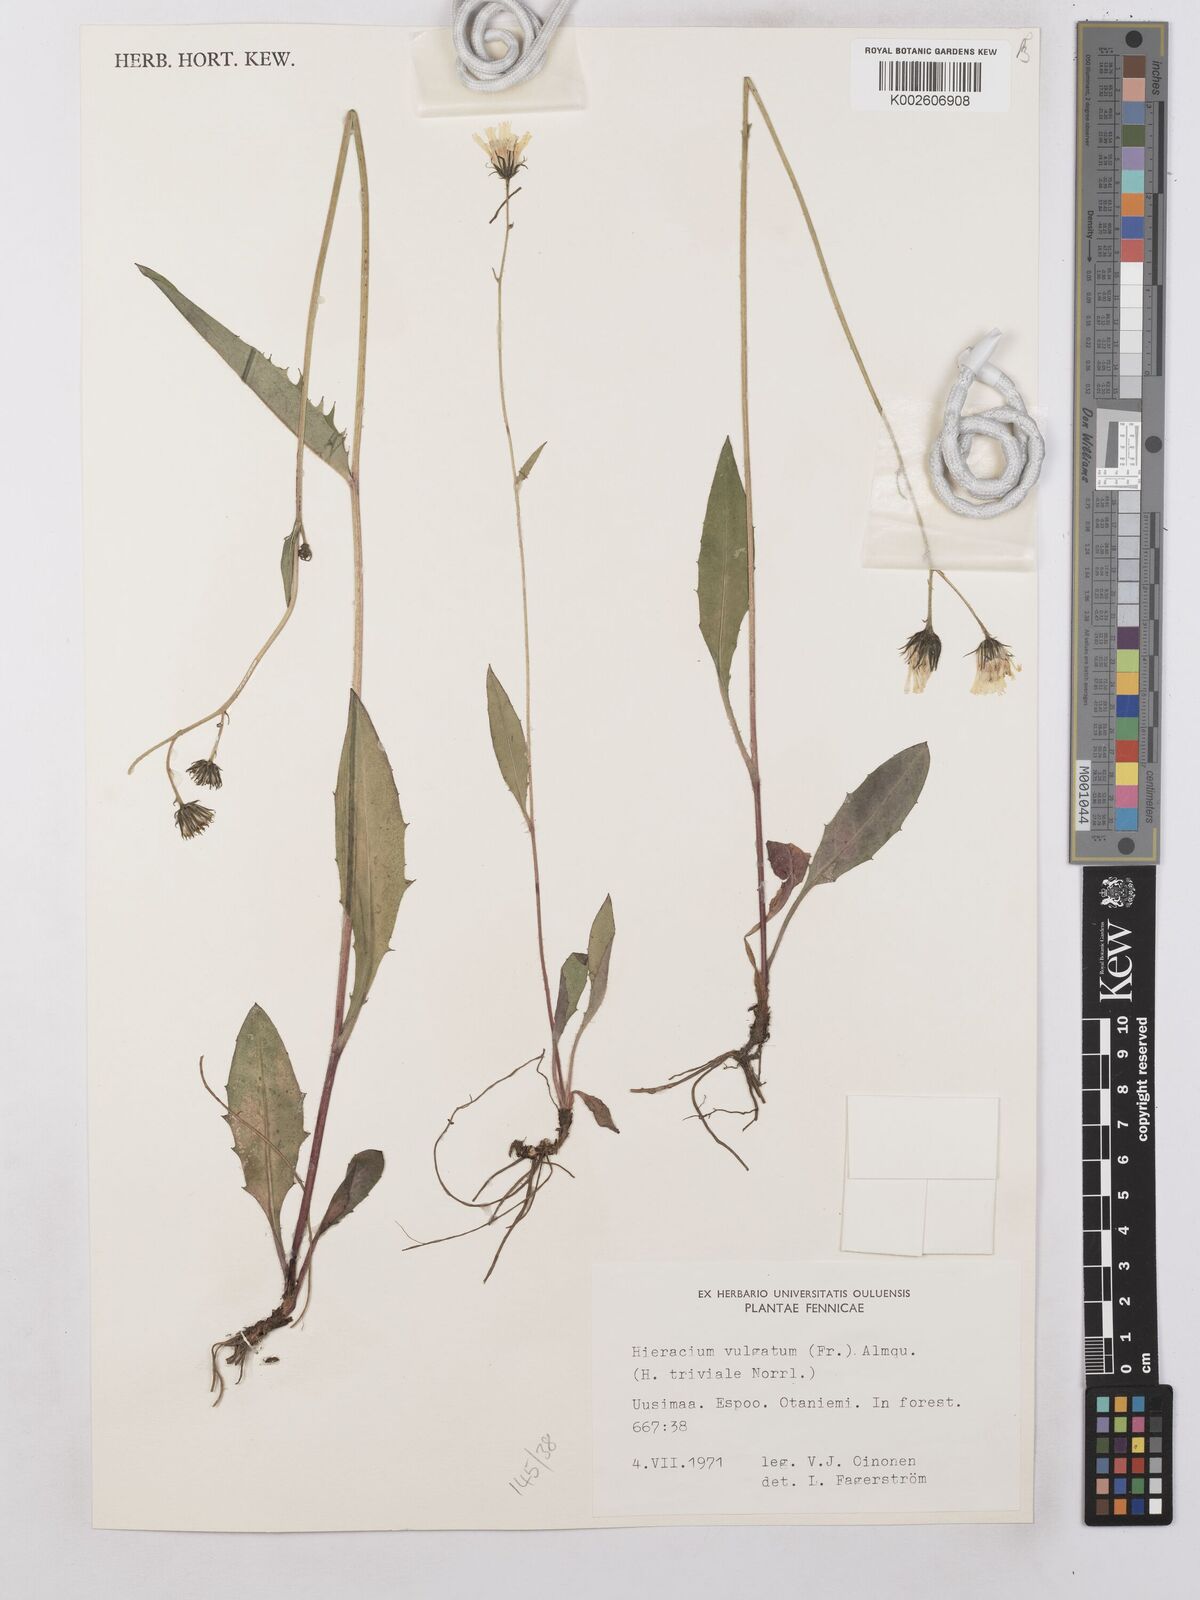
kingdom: Plantae
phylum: Tracheophyta
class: Magnoliopsida
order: Asterales
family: Asteraceae
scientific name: Asteraceae
